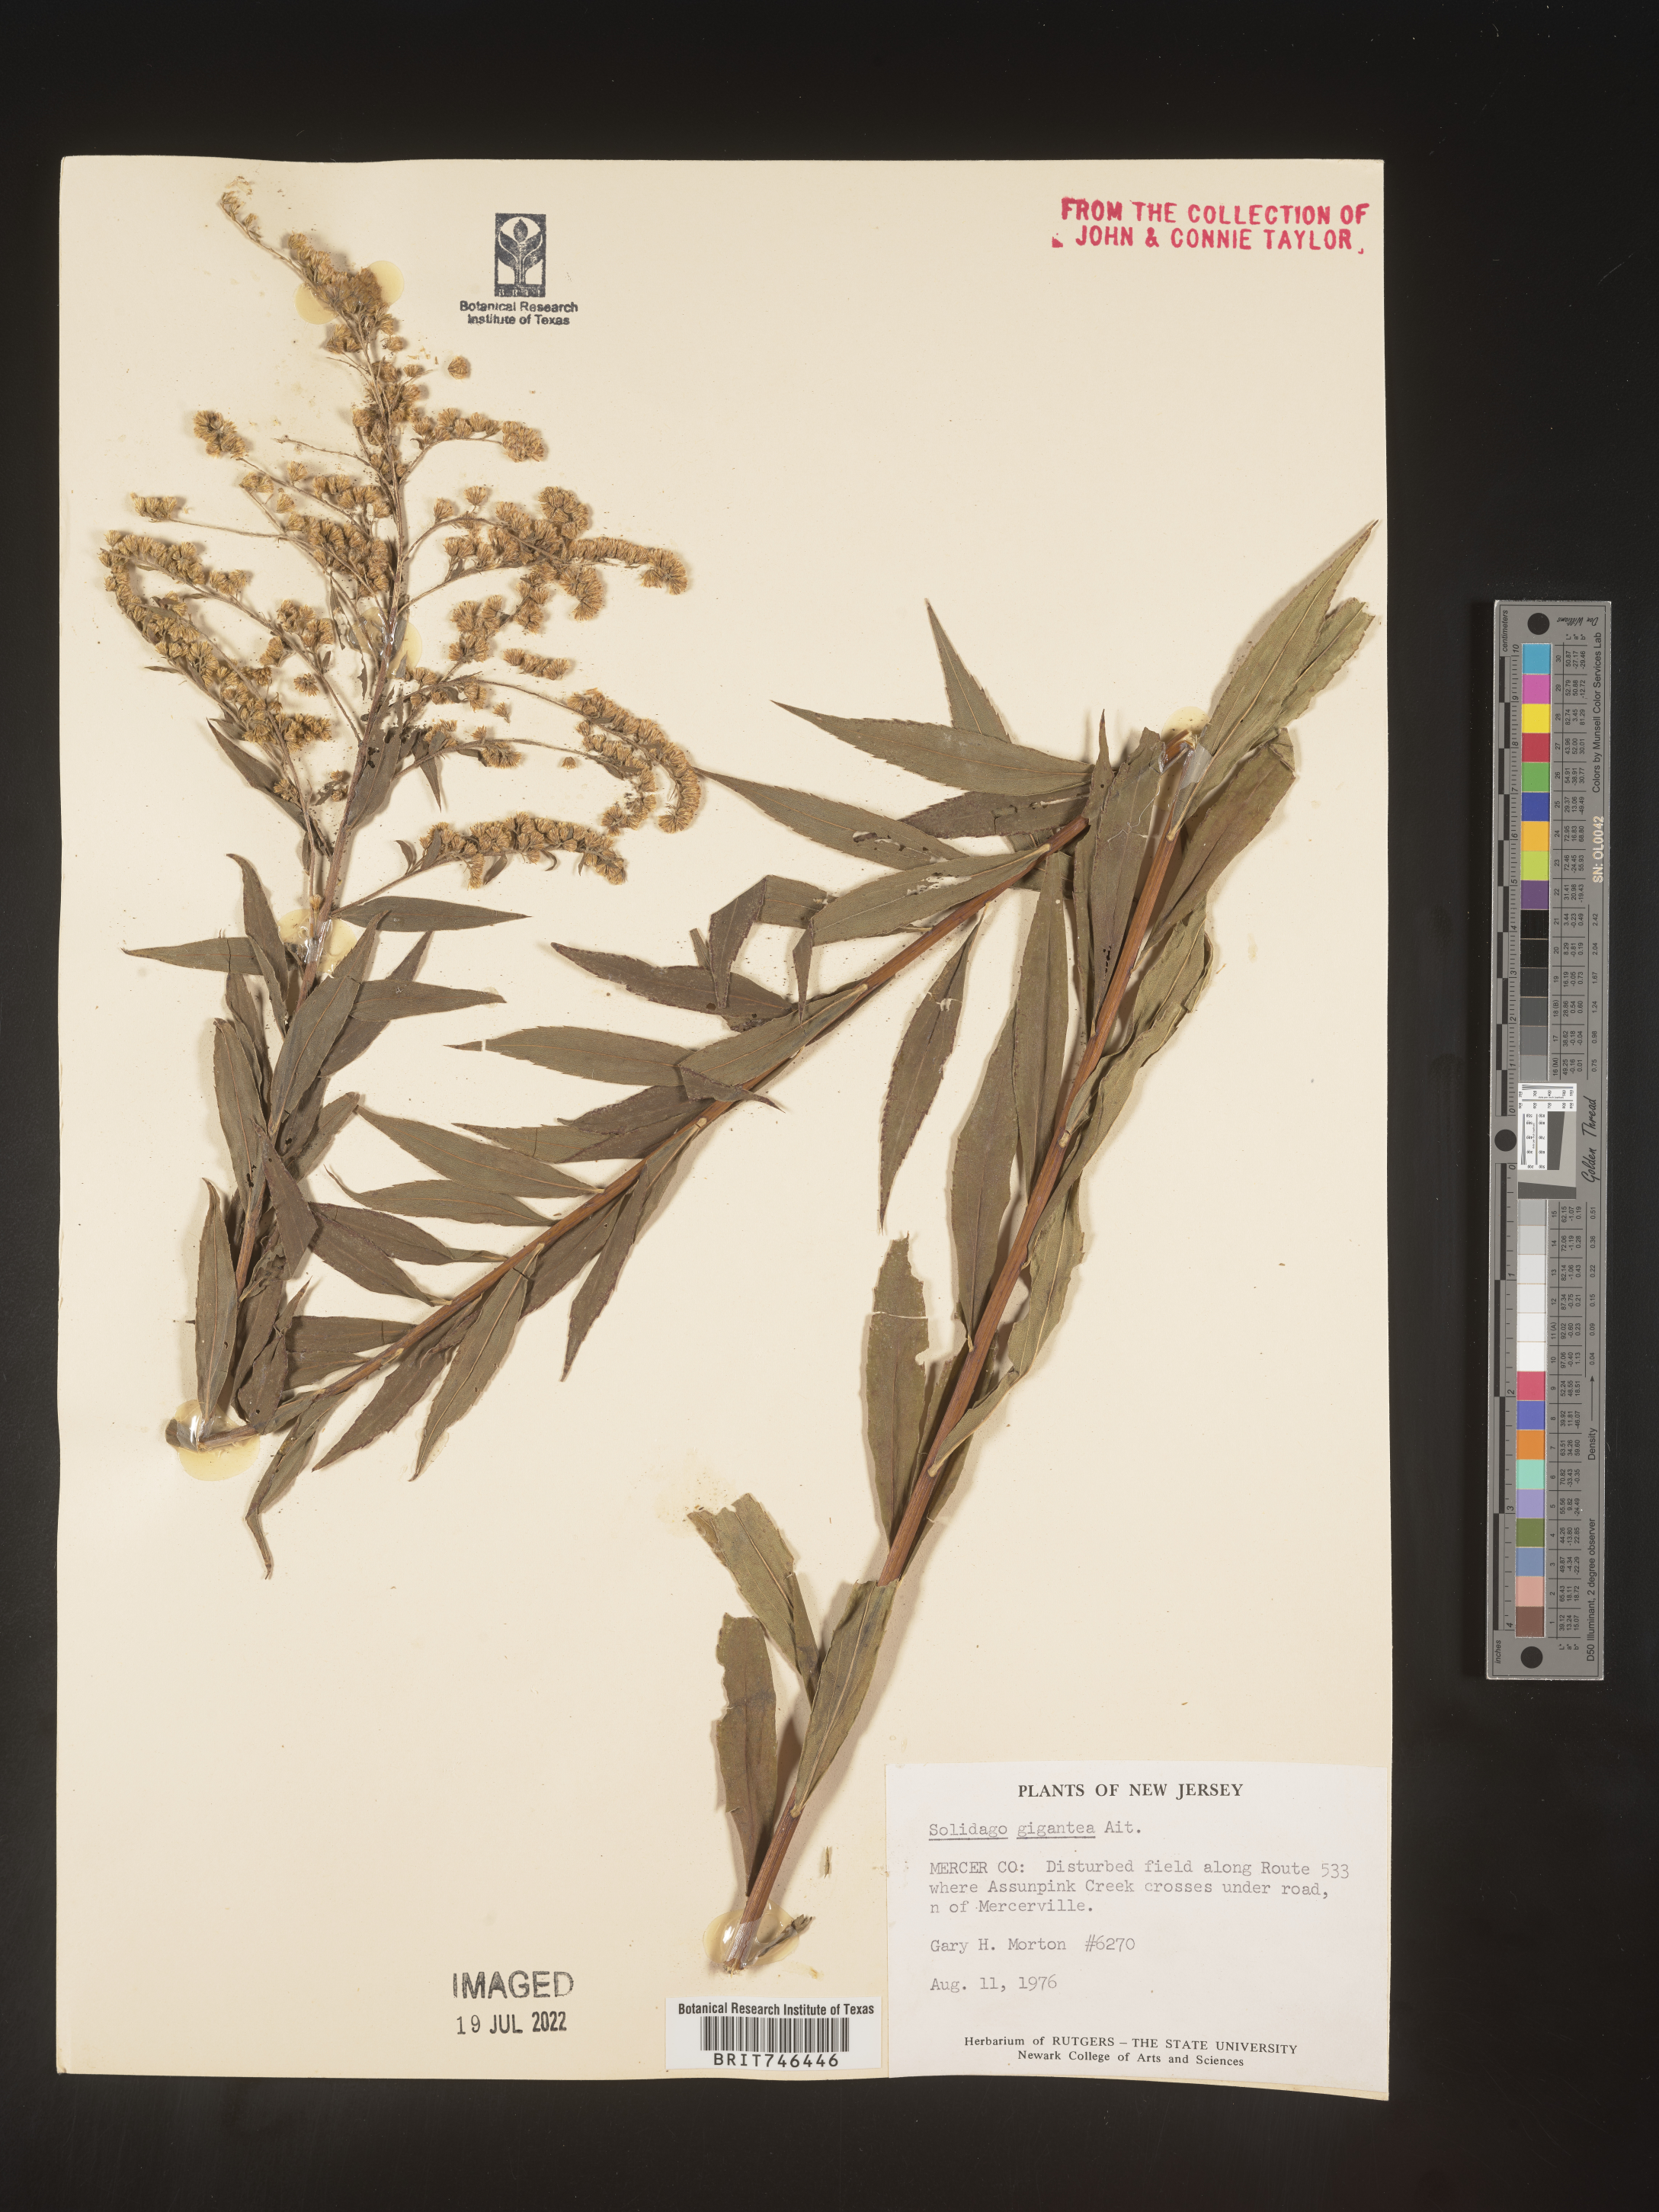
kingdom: Plantae
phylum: Tracheophyta
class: Magnoliopsida
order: Asterales
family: Asteraceae
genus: Solidago
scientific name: Solidago gigantea
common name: Giant goldenrod
